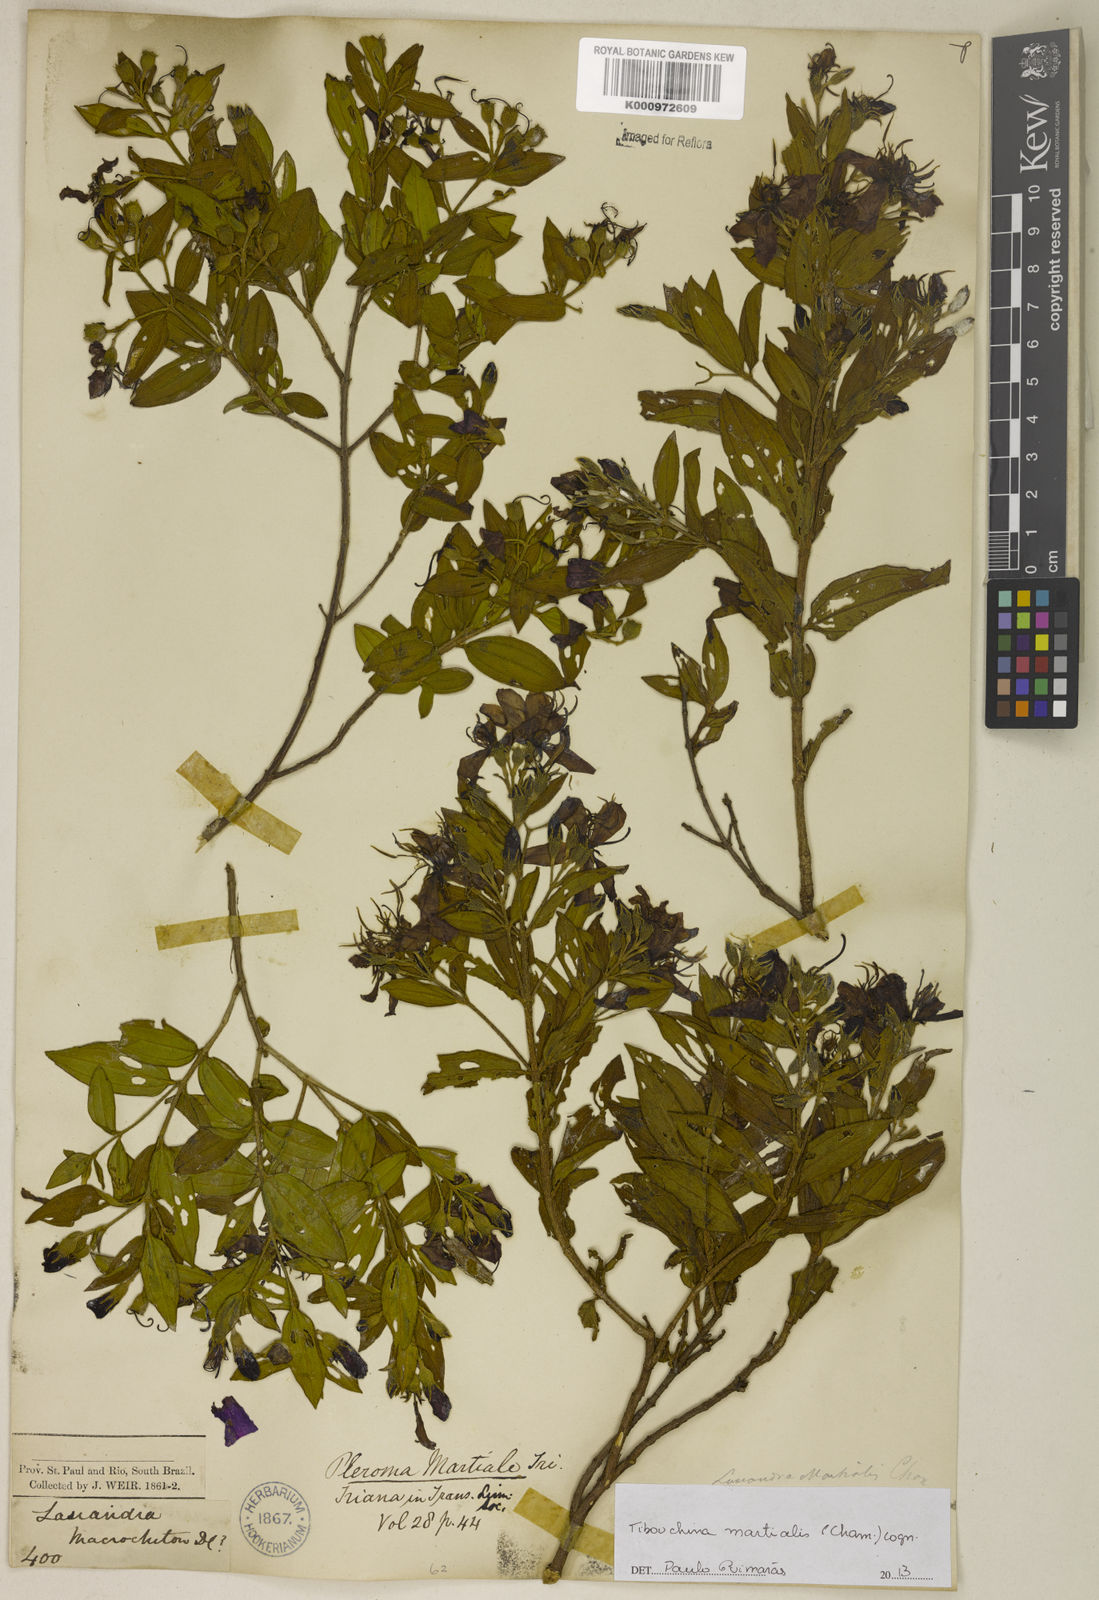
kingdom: Plantae
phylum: Tracheophyta
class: Magnoliopsida
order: Myrtales
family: Melastomataceae
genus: Pleroma
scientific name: Pleroma martiale
